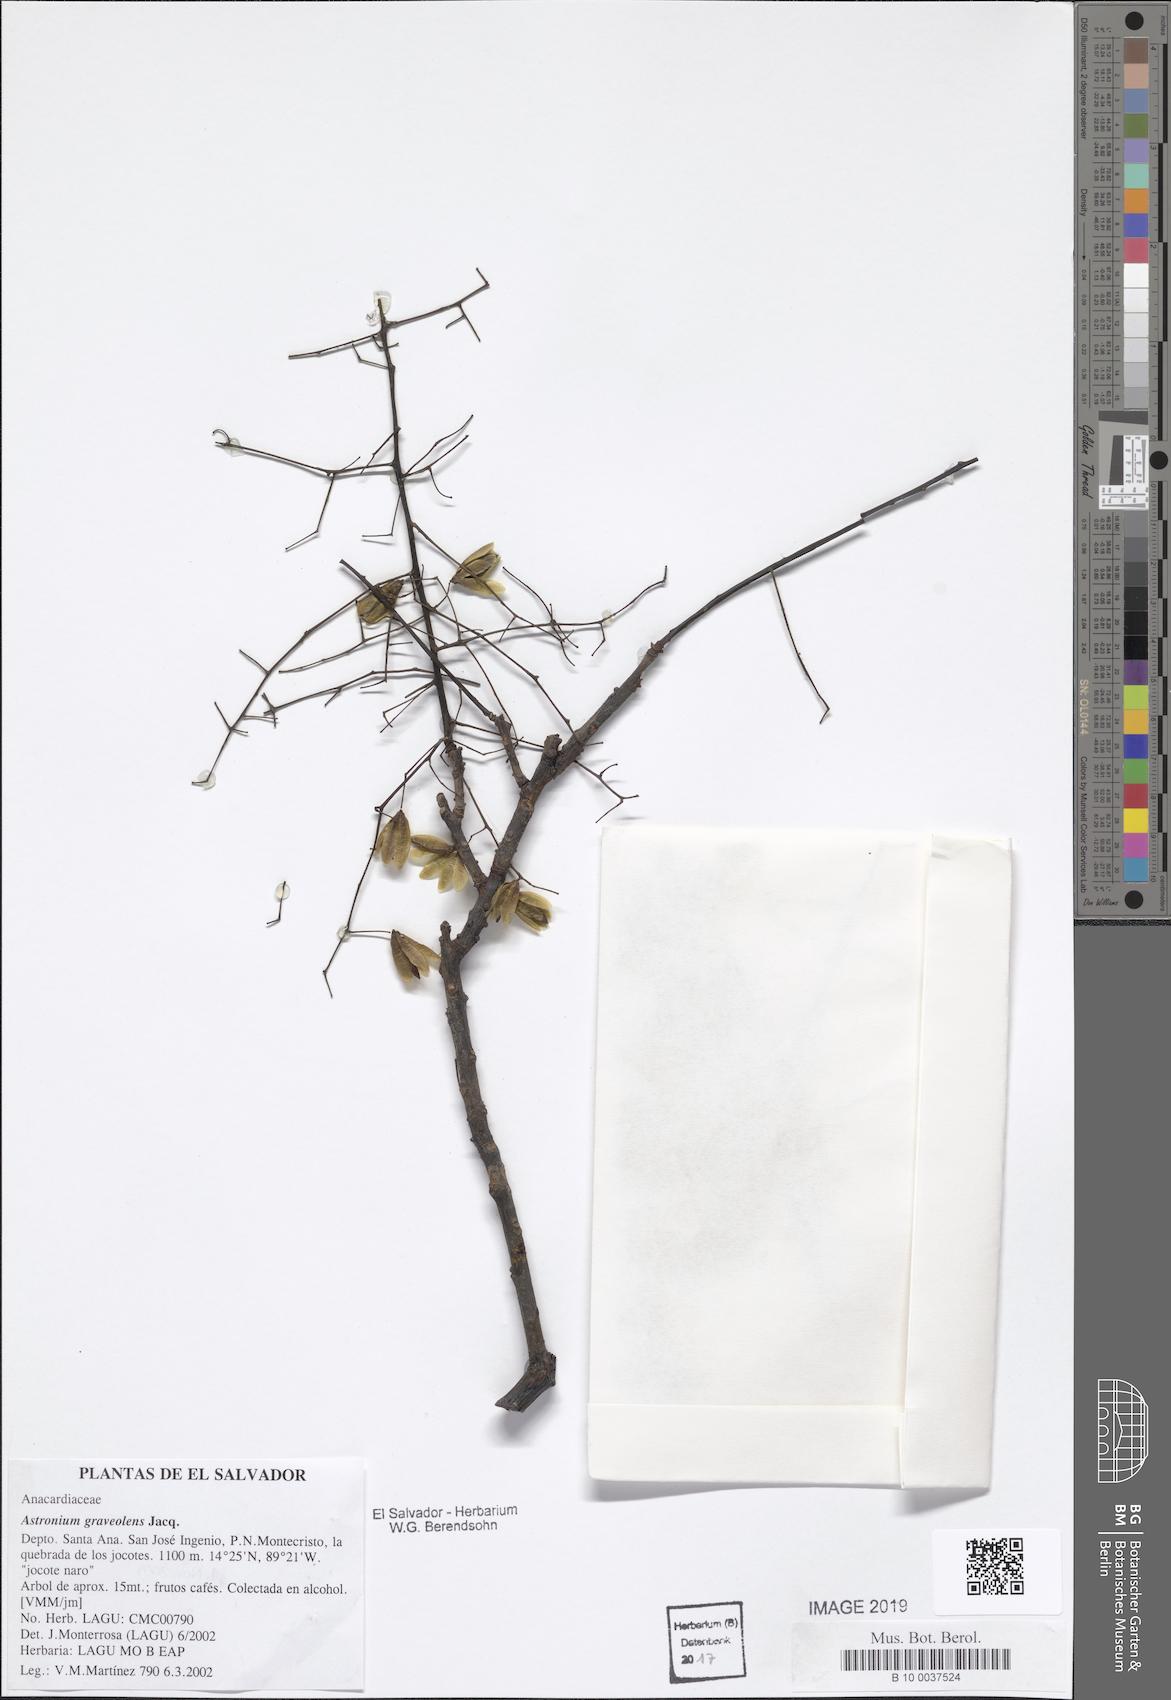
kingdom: Plantae
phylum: Tracheophyta
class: Magnoliopsida
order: Sapindales
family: Anacardiaceae
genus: Astronium
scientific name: Astronium graveolens
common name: Glassywood
